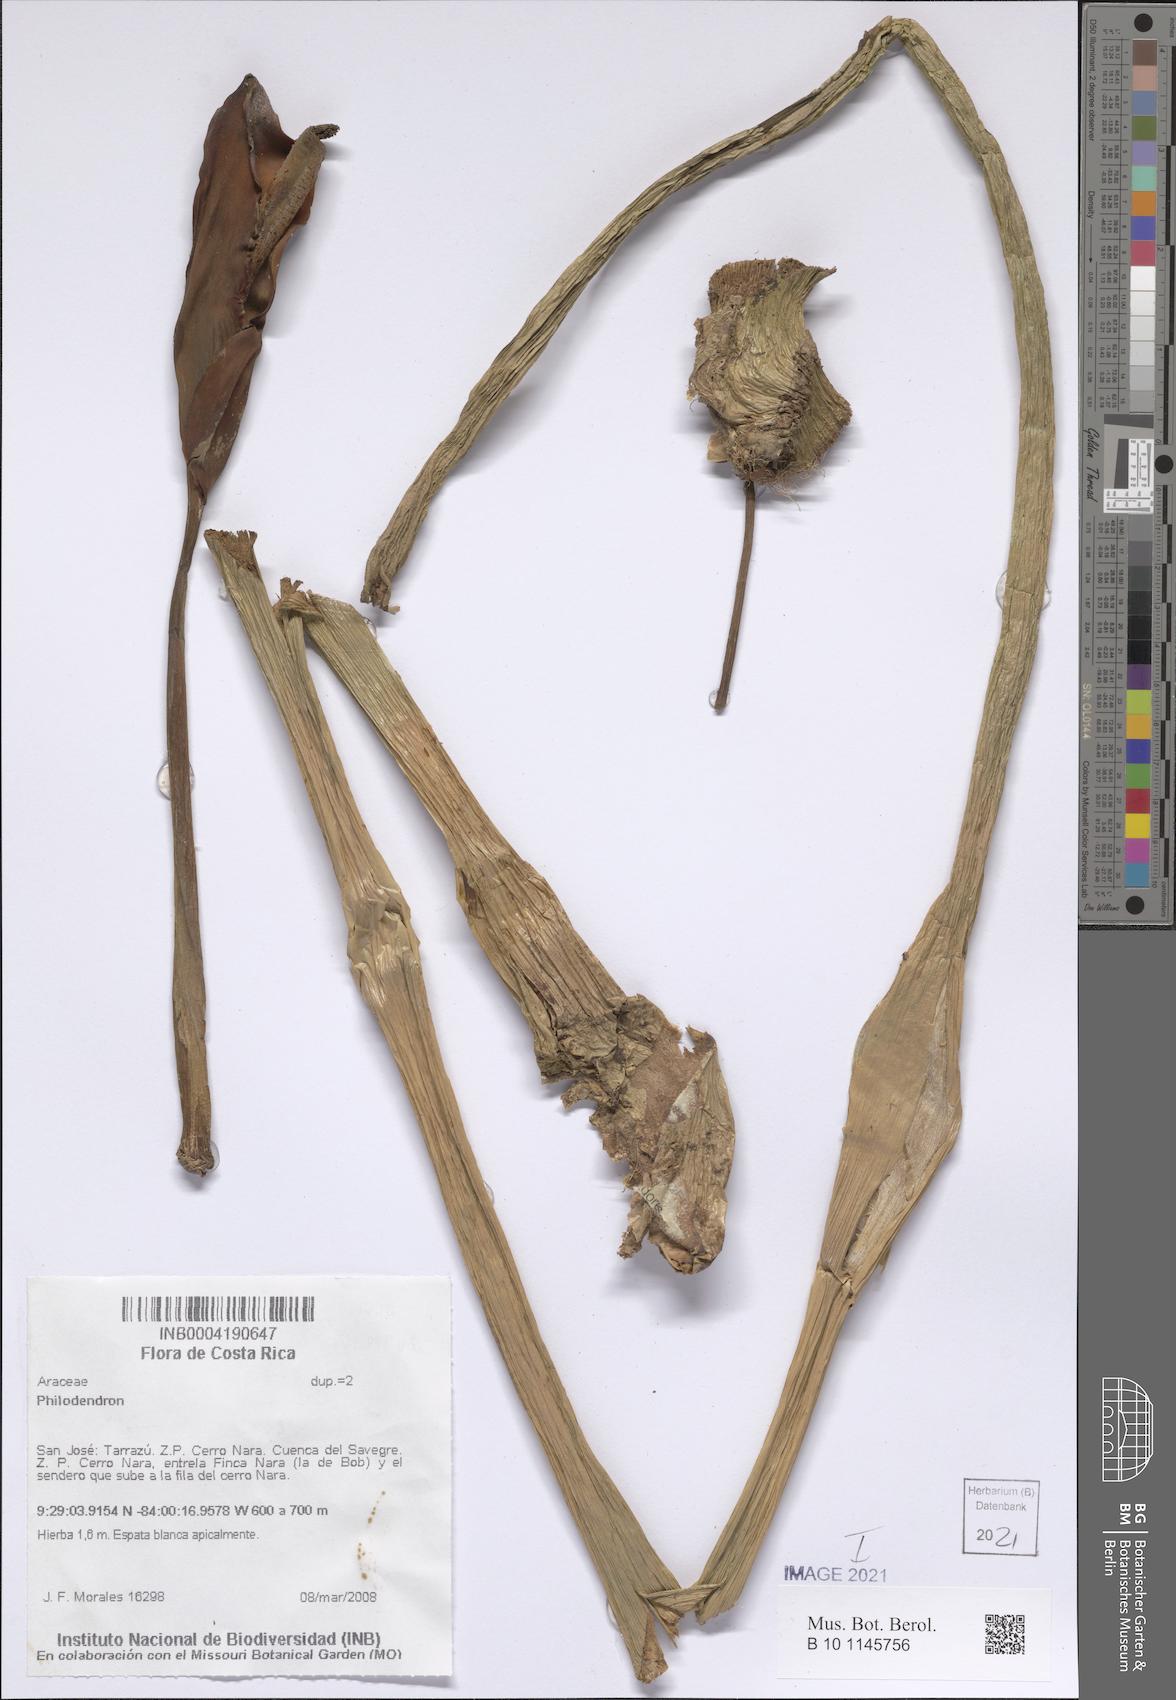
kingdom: Plantae
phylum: Tracheophyta
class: Liliopsida
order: Alismatales
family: Araceae
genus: Philodendron
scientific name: Philodendron
